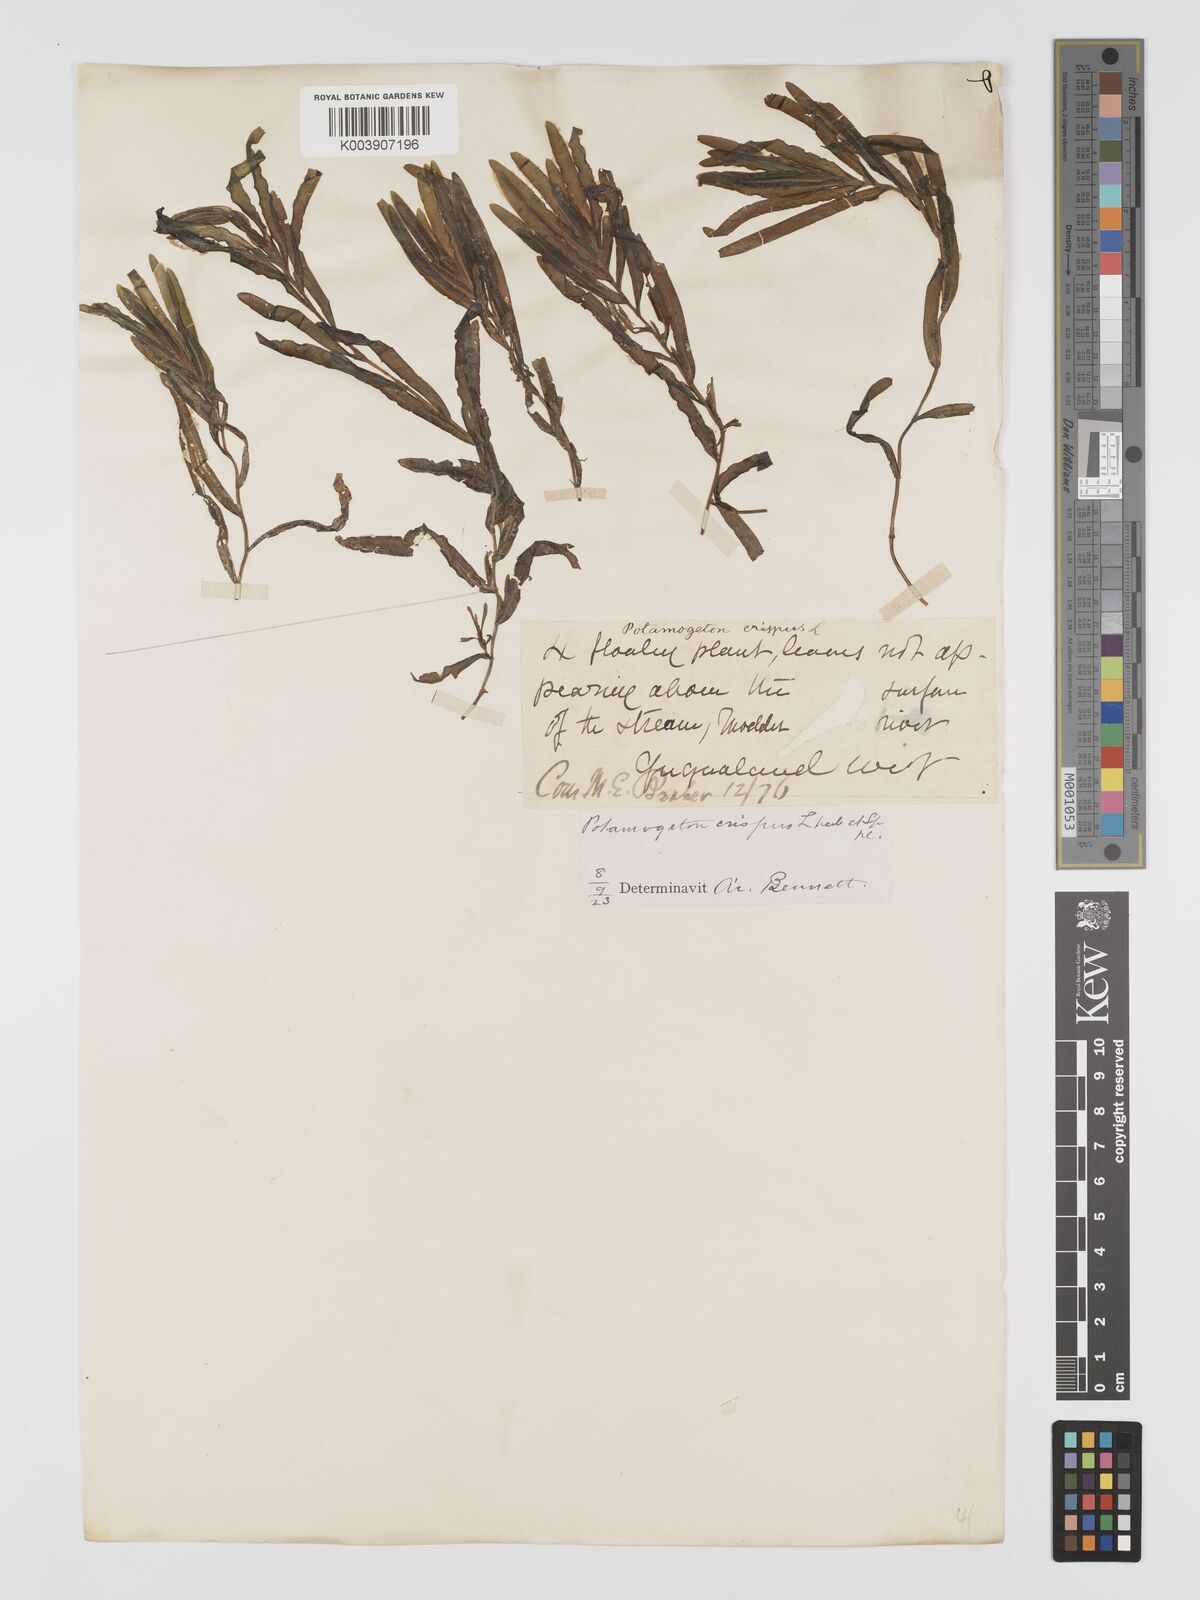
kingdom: Plantae
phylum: Tracheophyta
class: Liliopsida
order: Alismatales
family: Potamogetonaceae
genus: Potamogeton
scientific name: Potamogeton crispus
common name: Curled pondweed
